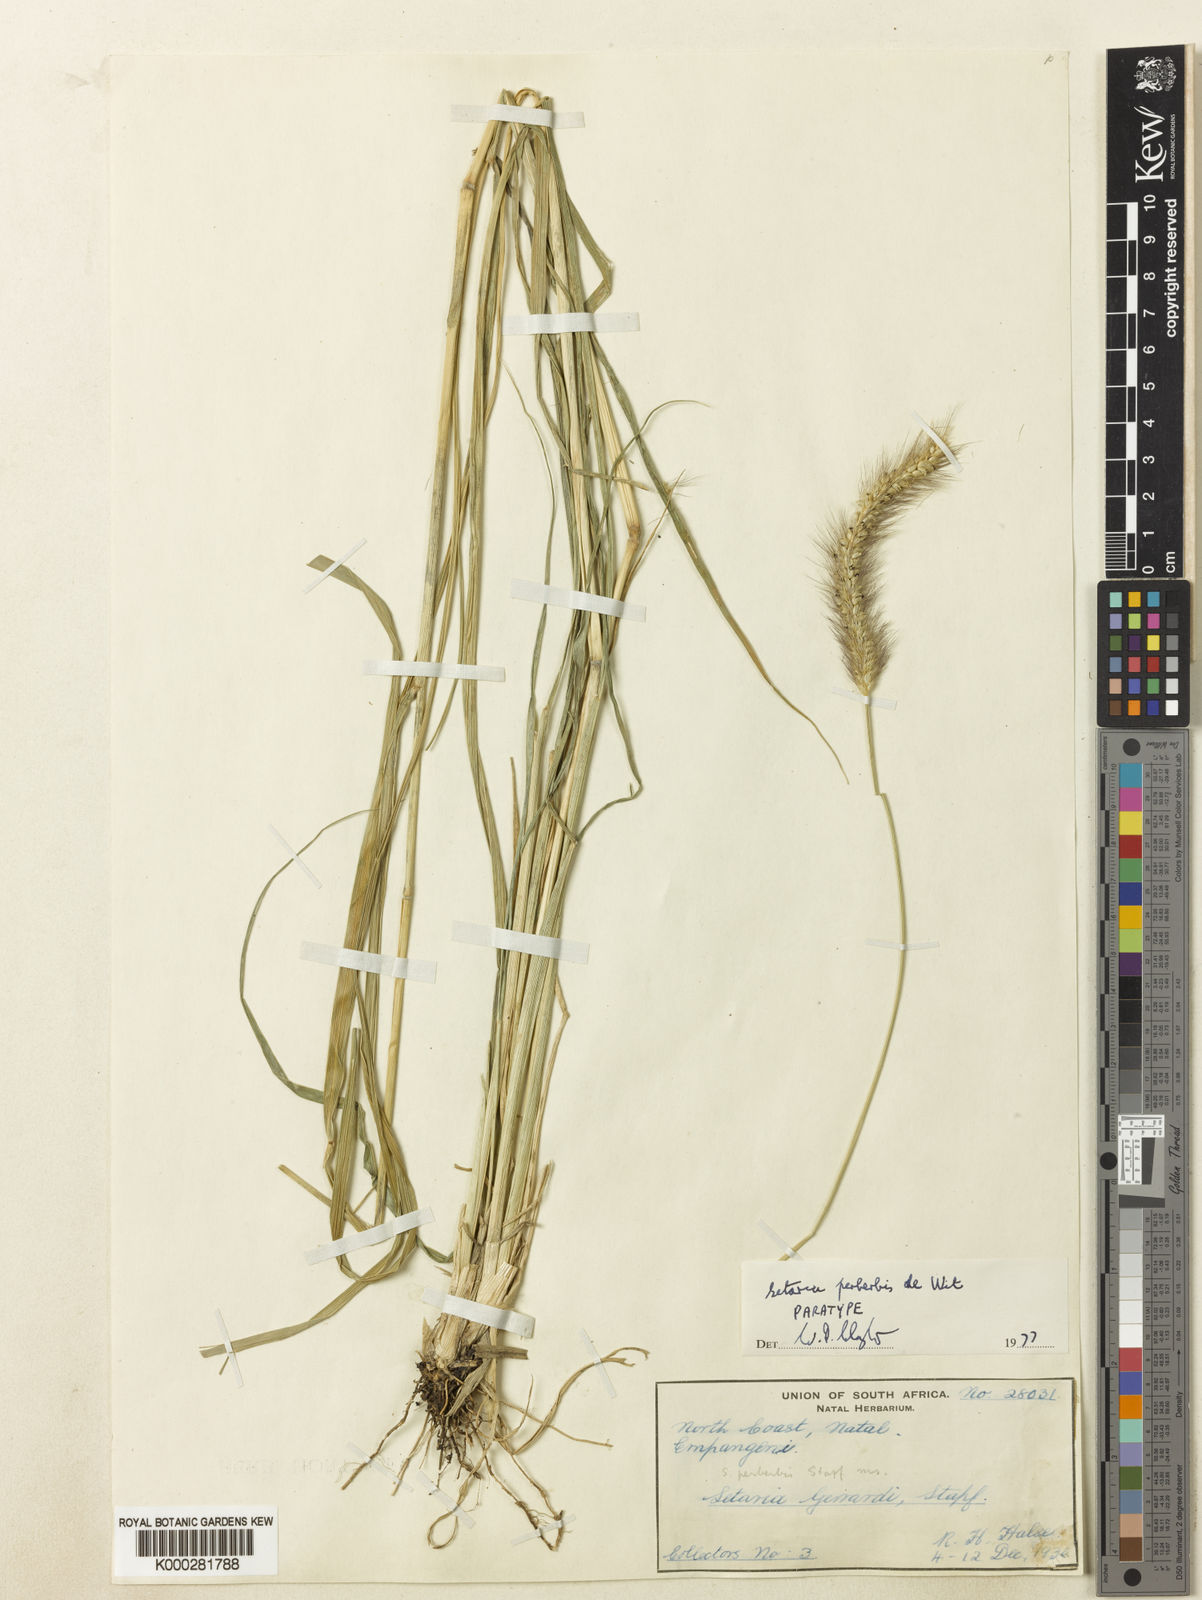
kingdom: Plantae
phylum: Tracheophyta
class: Liliopsida
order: Poales
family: Poaceae
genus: Setaria
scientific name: Setaria incrassata
